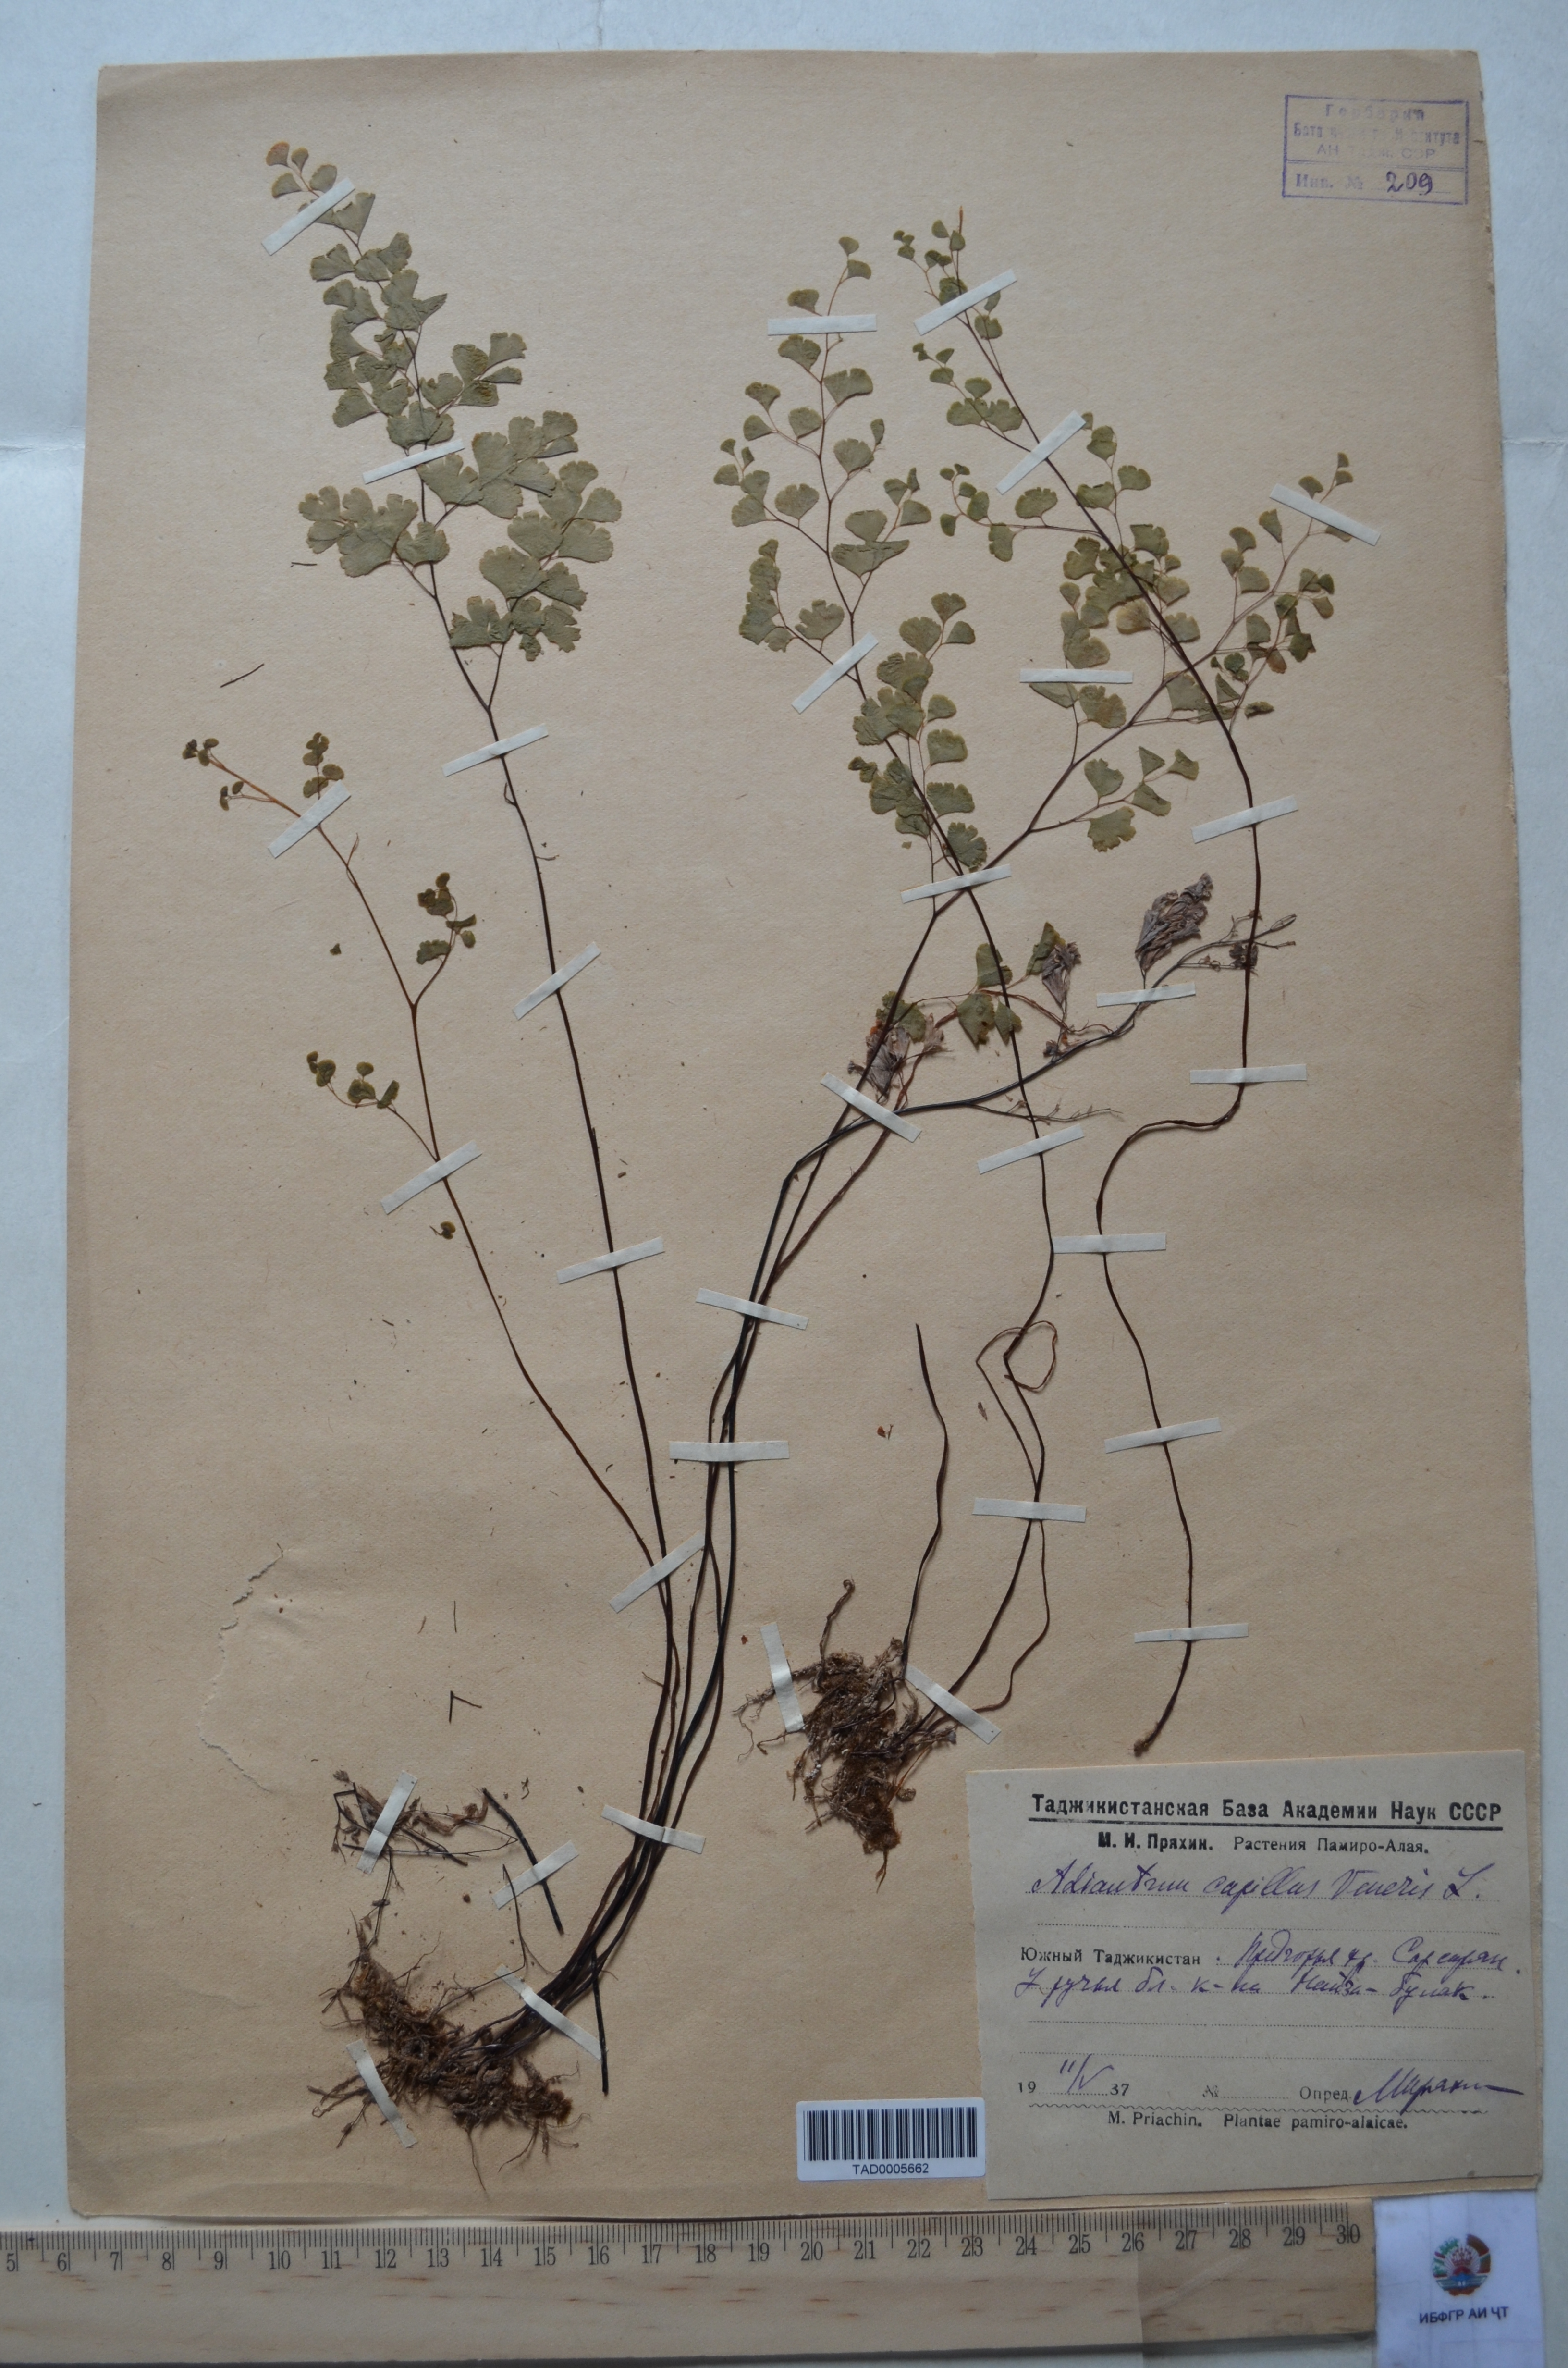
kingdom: Plantae
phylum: Tracheophyta
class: Polypodiopsida
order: Polypodiales
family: Pteridaceae
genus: Adiantum
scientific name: Adiantum capillus-veneris
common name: Maidenhair fern
